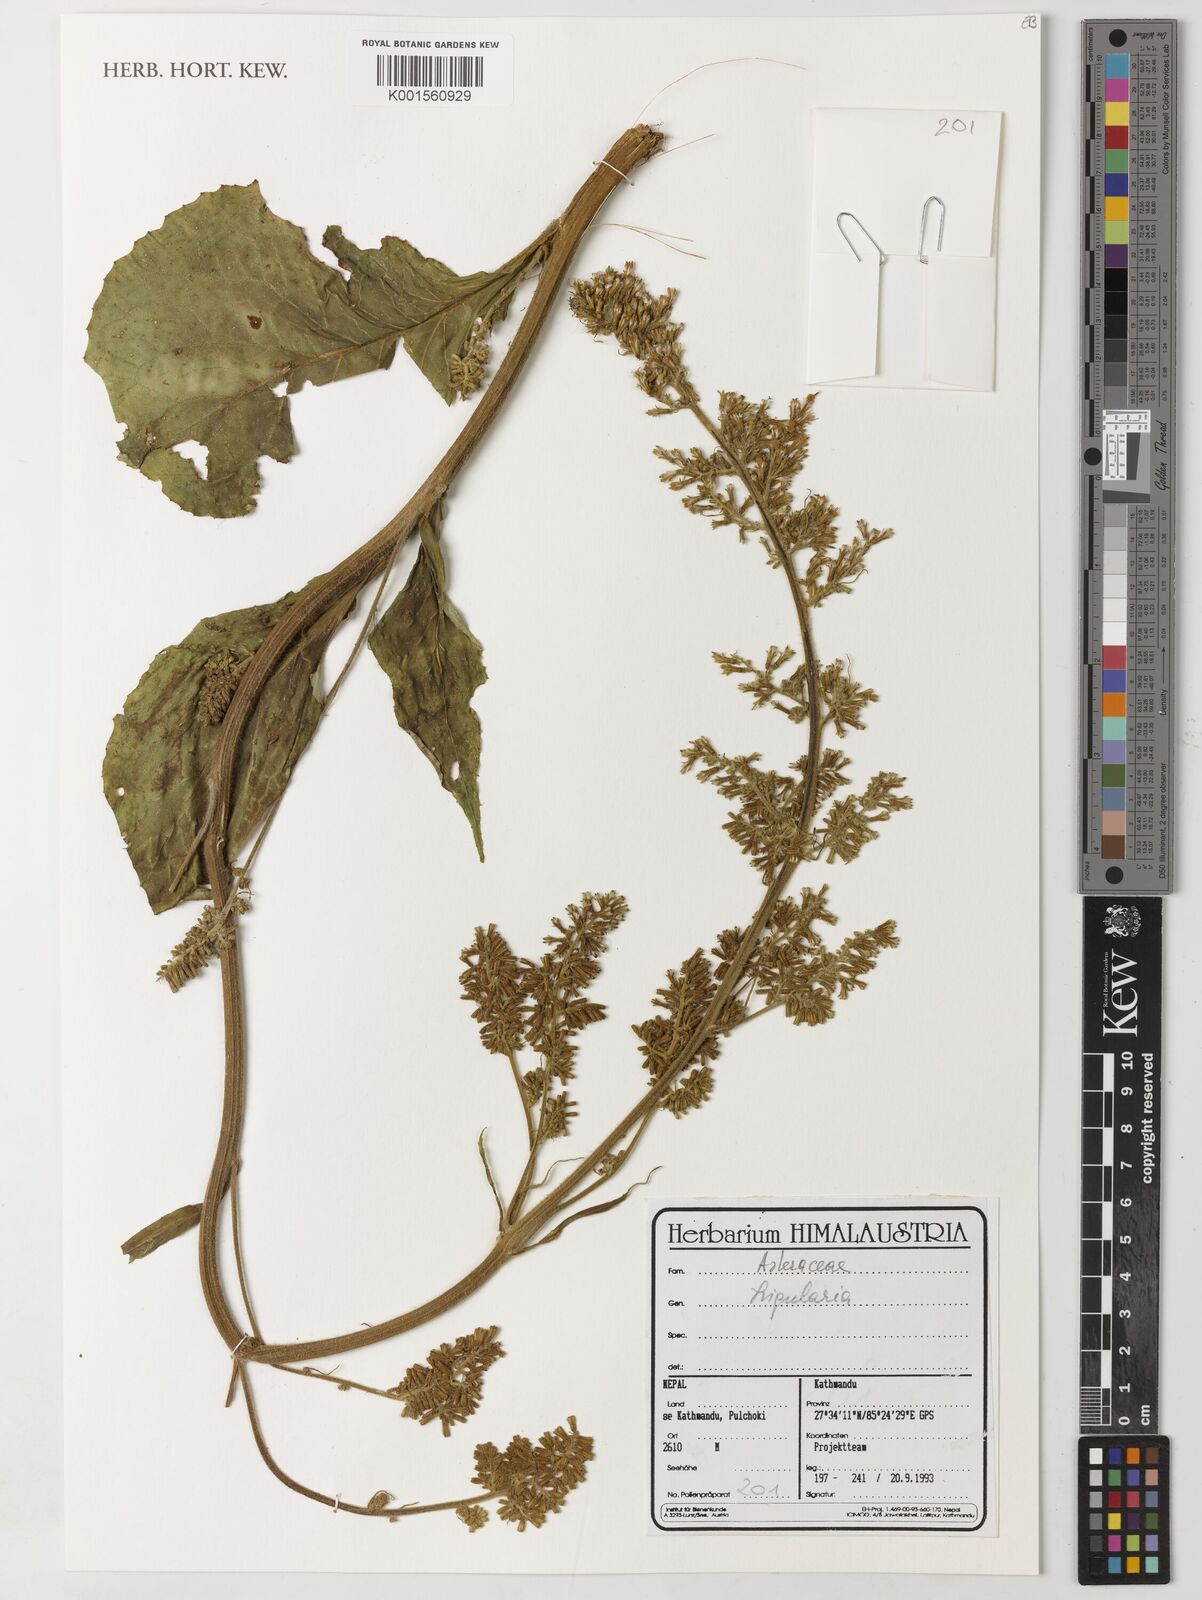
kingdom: Plantae
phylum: Tracheophyta
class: Magnoliopsida
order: Asterales
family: Asteraceae
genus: Ligularia
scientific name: Ligularia
